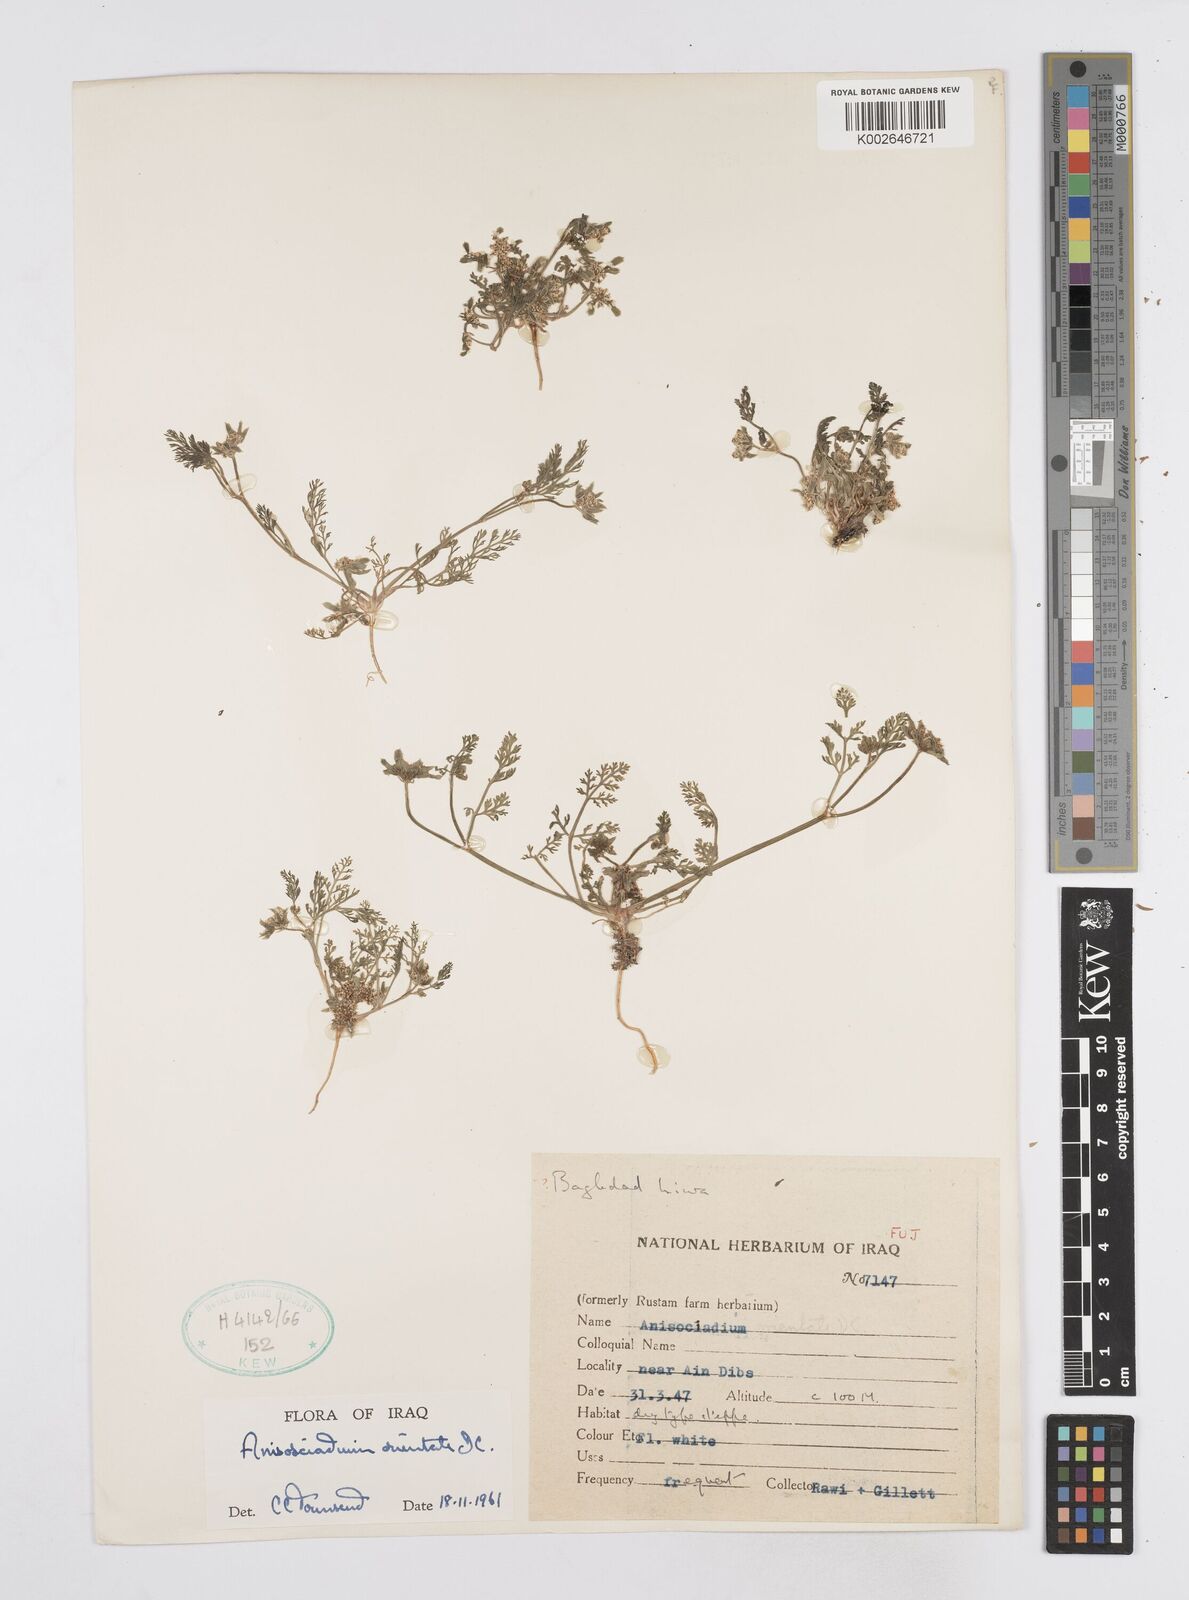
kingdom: Plantae
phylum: Tracheophyta
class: Magnoliopsida
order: Apiales
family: Apiaceae
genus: Anisosciadium
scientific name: Anisosciadium orientale
